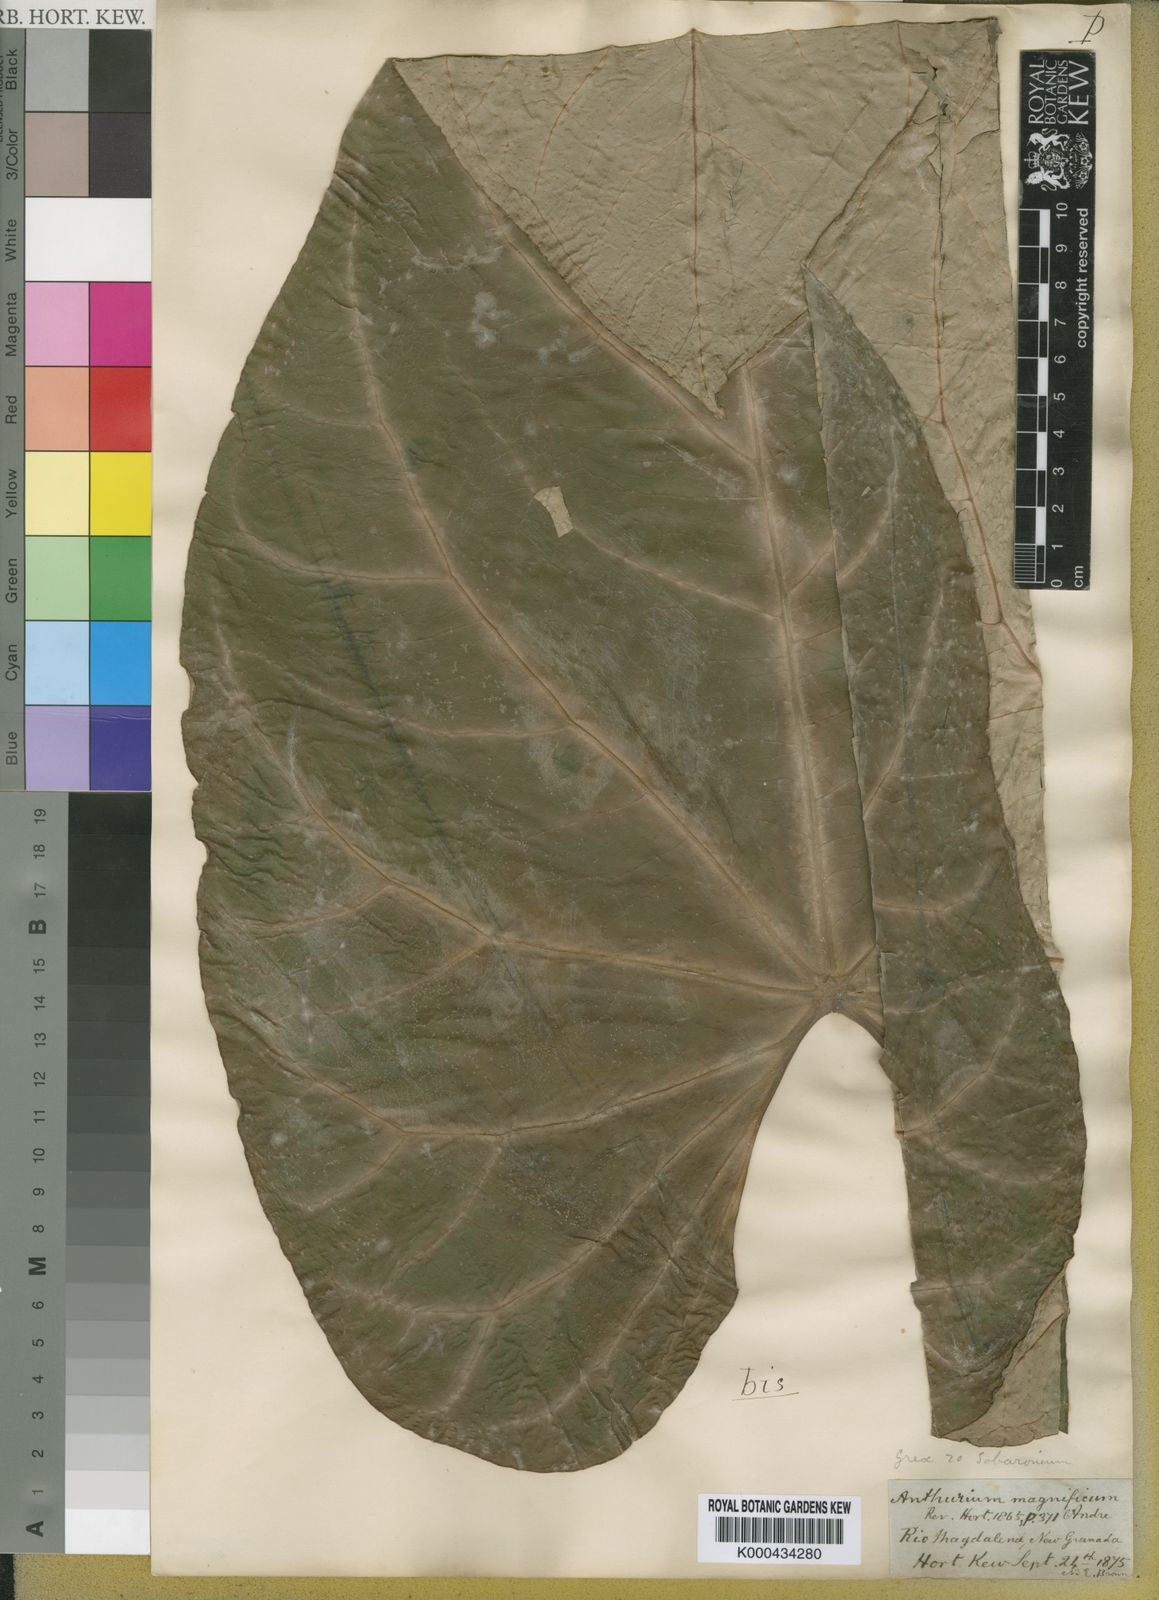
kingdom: Plantae
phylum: Tracheophyta
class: Liliopsida
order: Alismatales
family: Araceae
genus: Anthurium
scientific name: Anthurium magnificum
